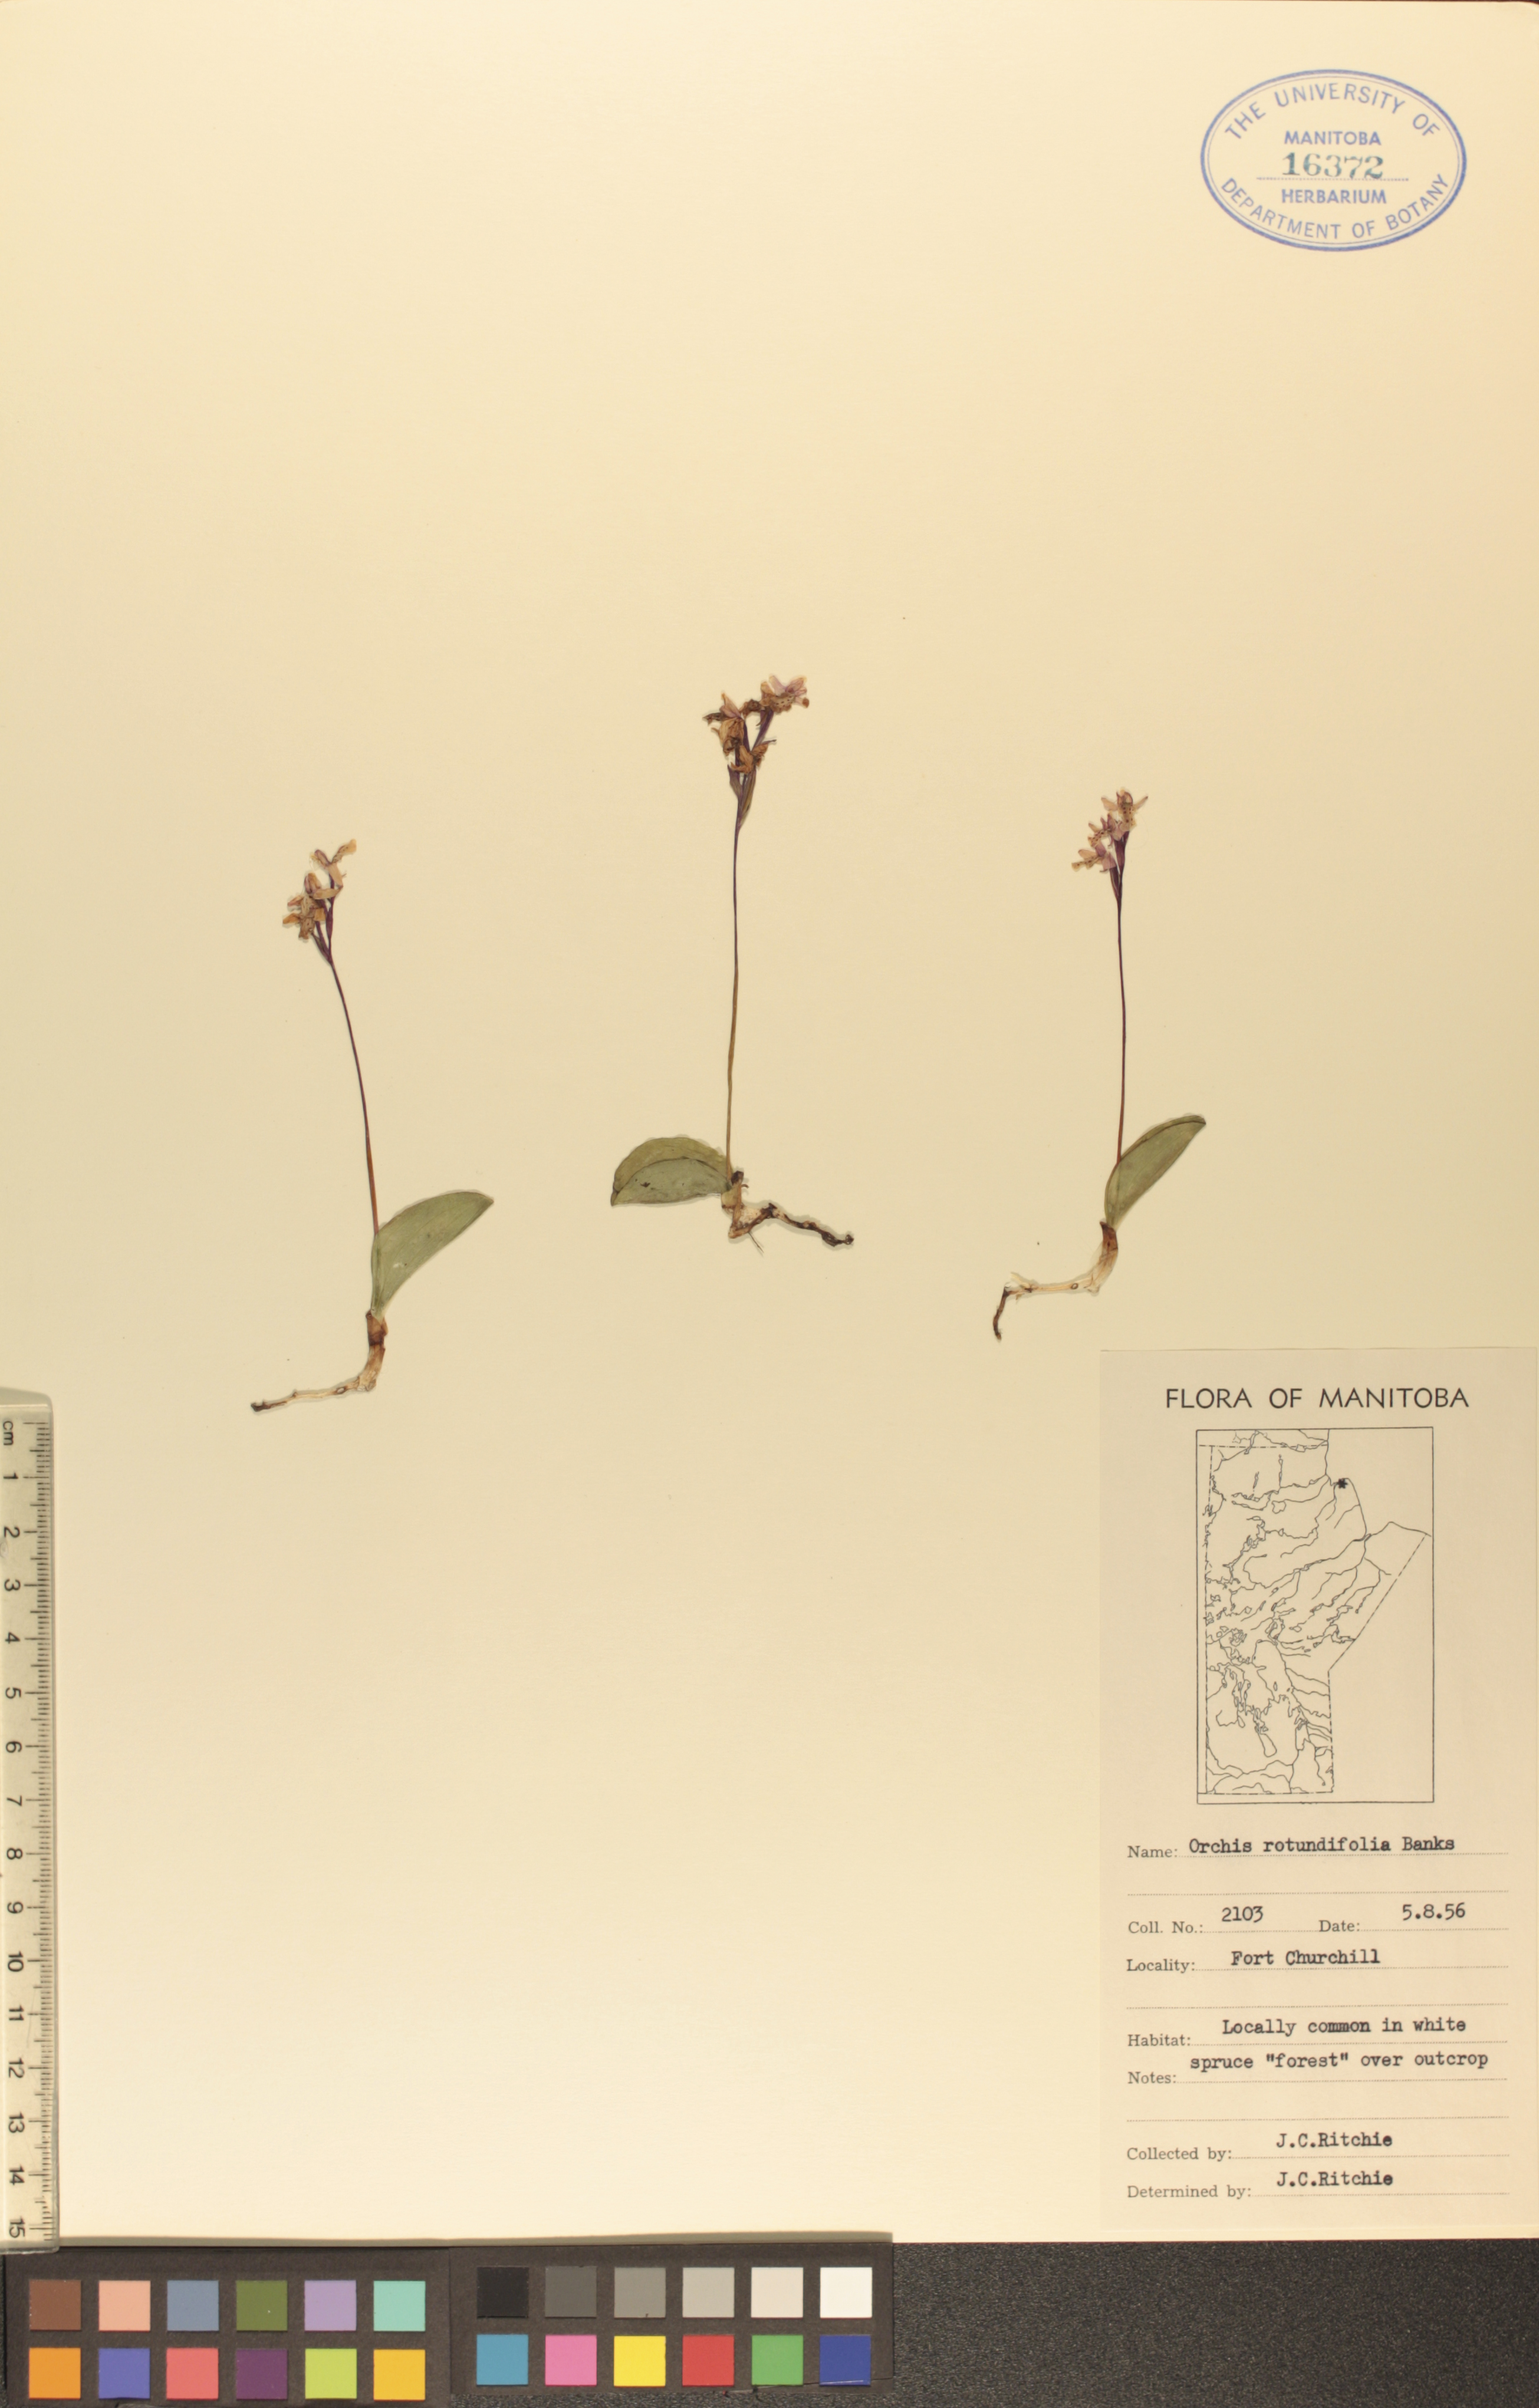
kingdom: Plantae
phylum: Tracheophyta
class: Liliopsida
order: Asparagales
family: Orchidaceae
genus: Galearis
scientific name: Galearis rotundifolia
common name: One-leaved orchis
